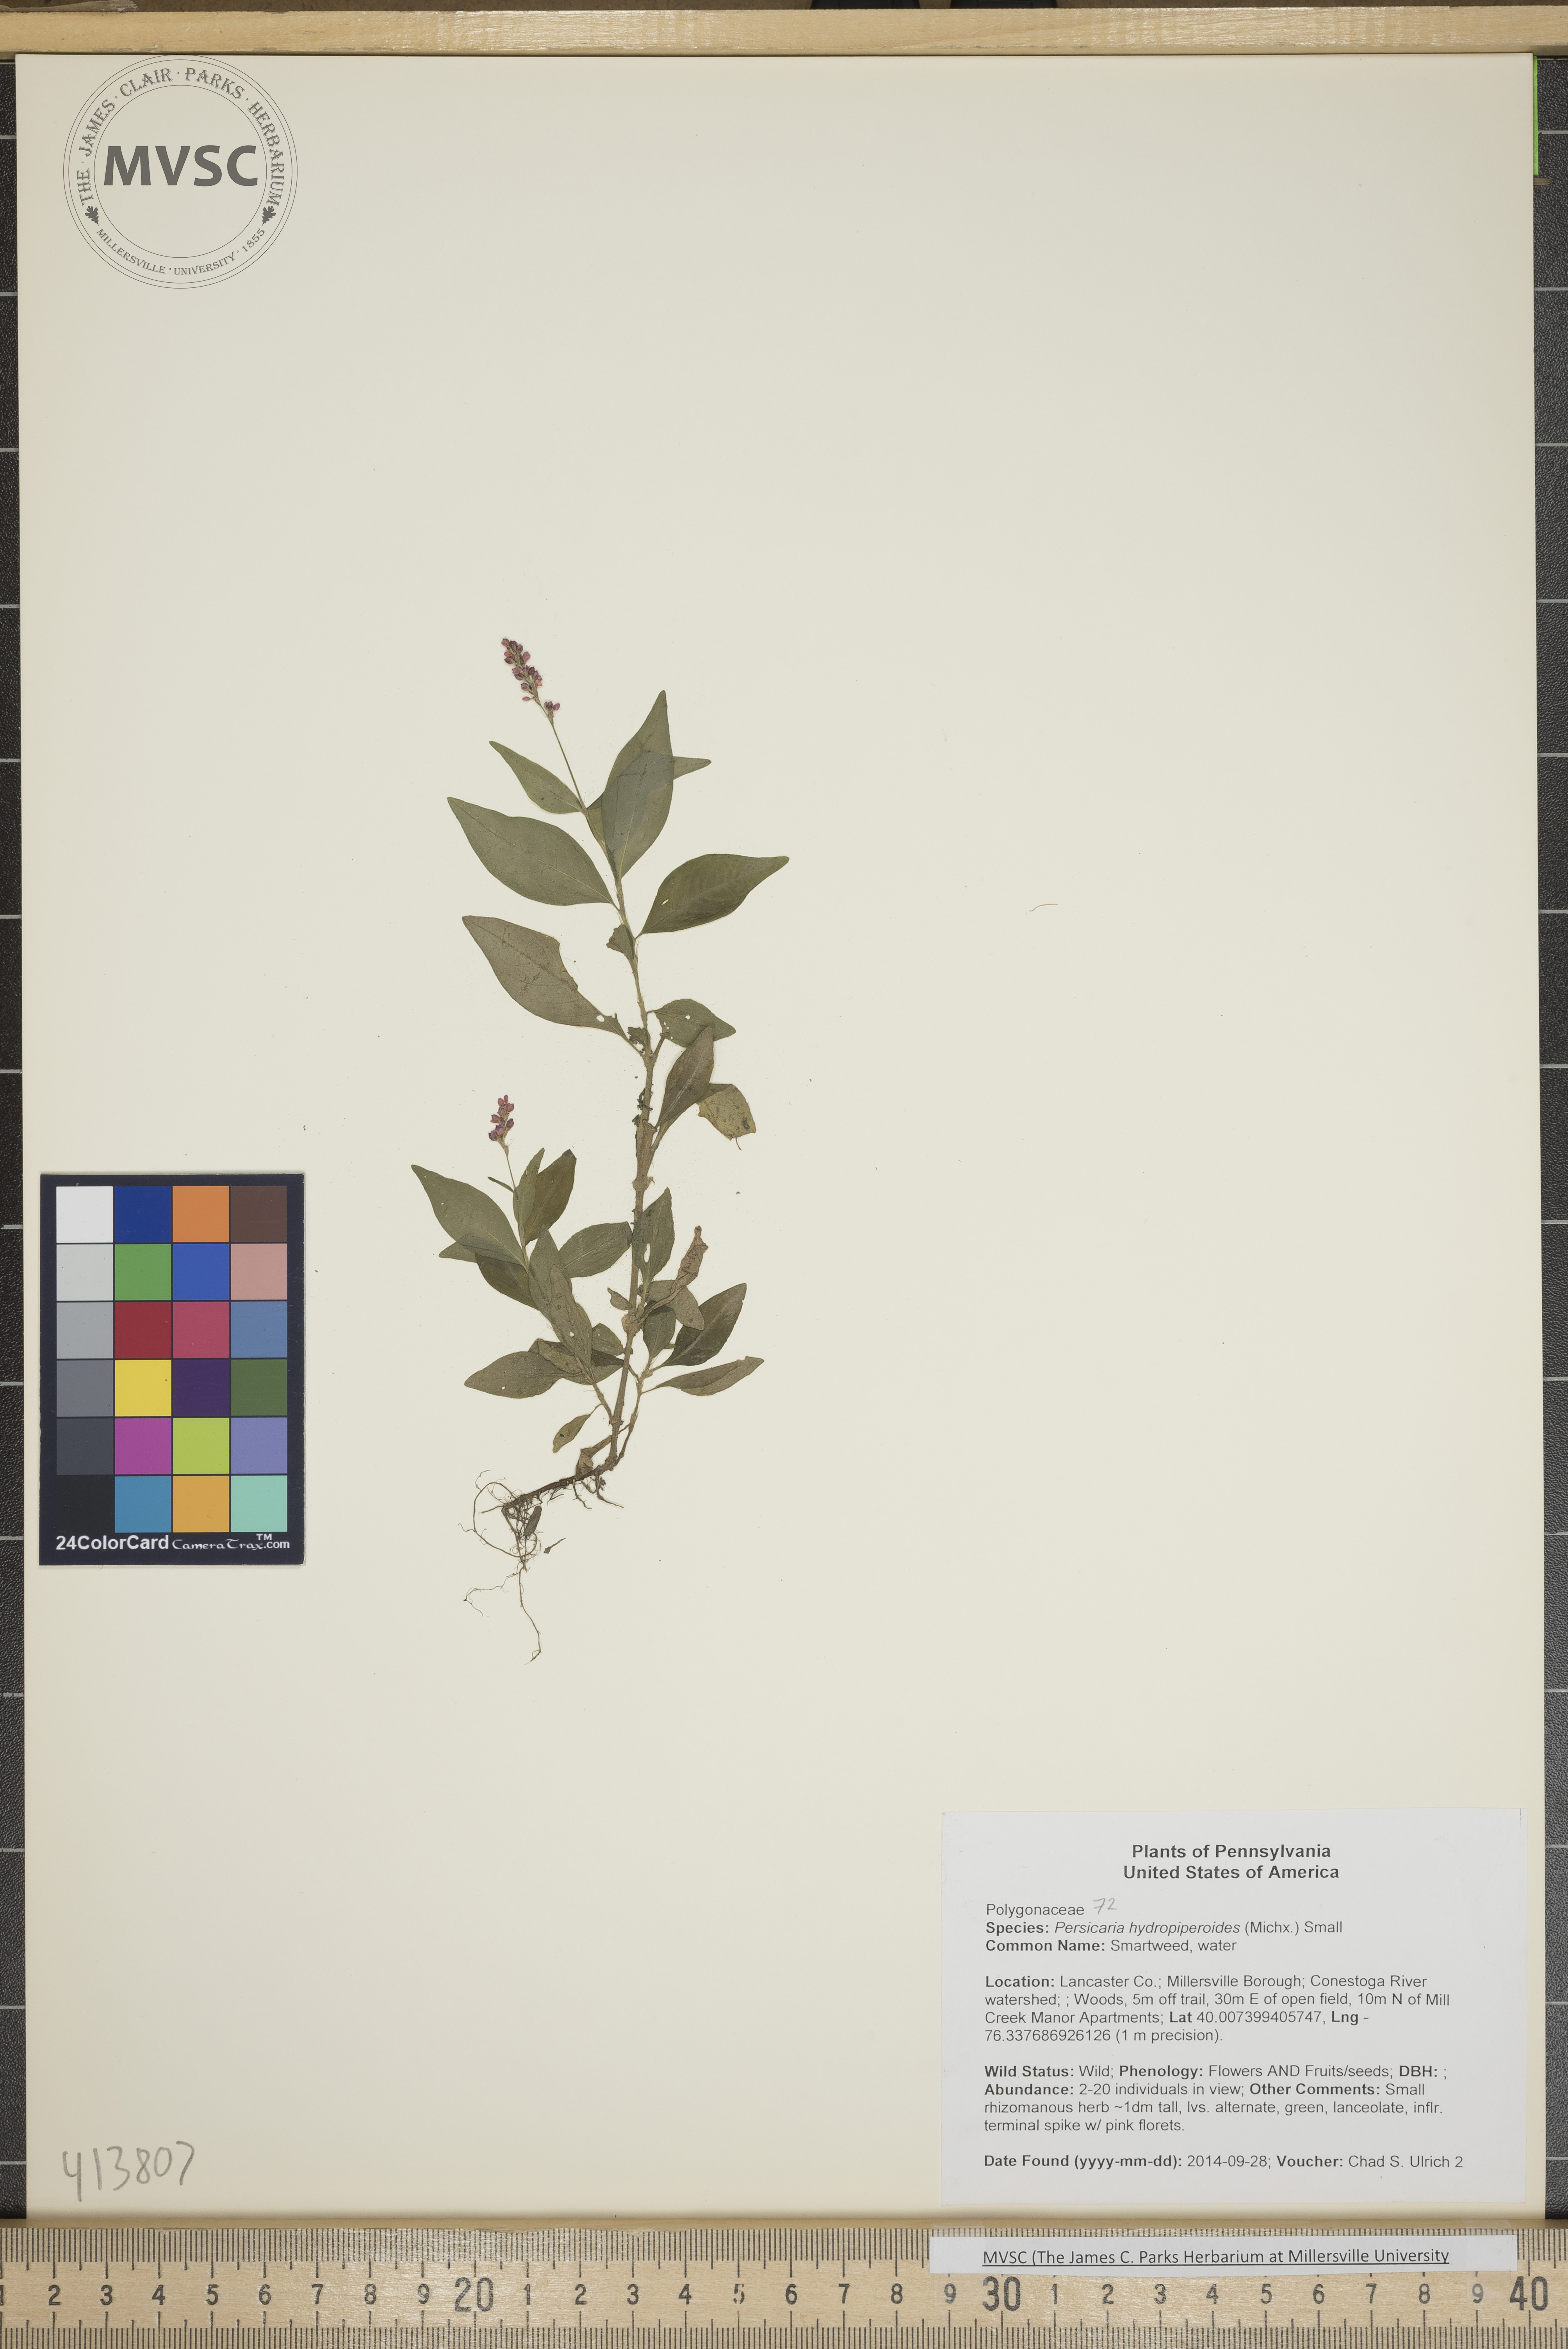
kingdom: Plantae
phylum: Tracheophyta
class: Magnoliopsida
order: Caryophyllales
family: Polygonaceae
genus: Persicaria
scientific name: Persicaria hydropiperoides
